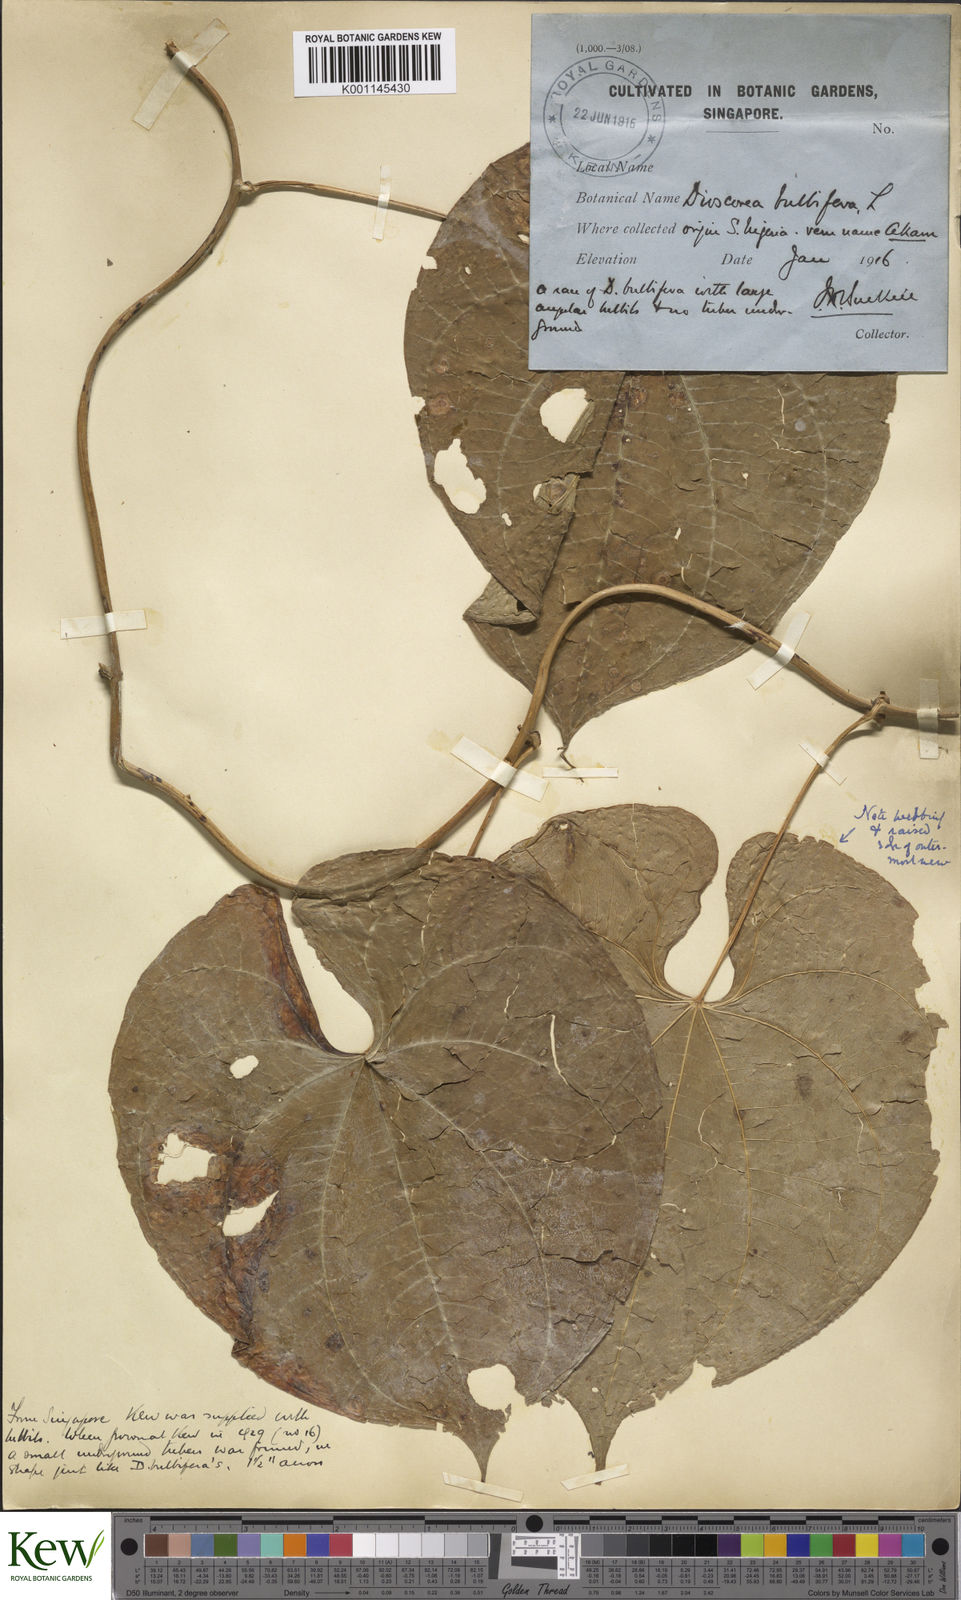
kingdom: Plantae
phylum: Tracheophyta
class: Liliopsida
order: Dioscoreales
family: Dioscoreaceae
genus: Dioscorea
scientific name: Dioscorea bulbifera
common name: Air yam
